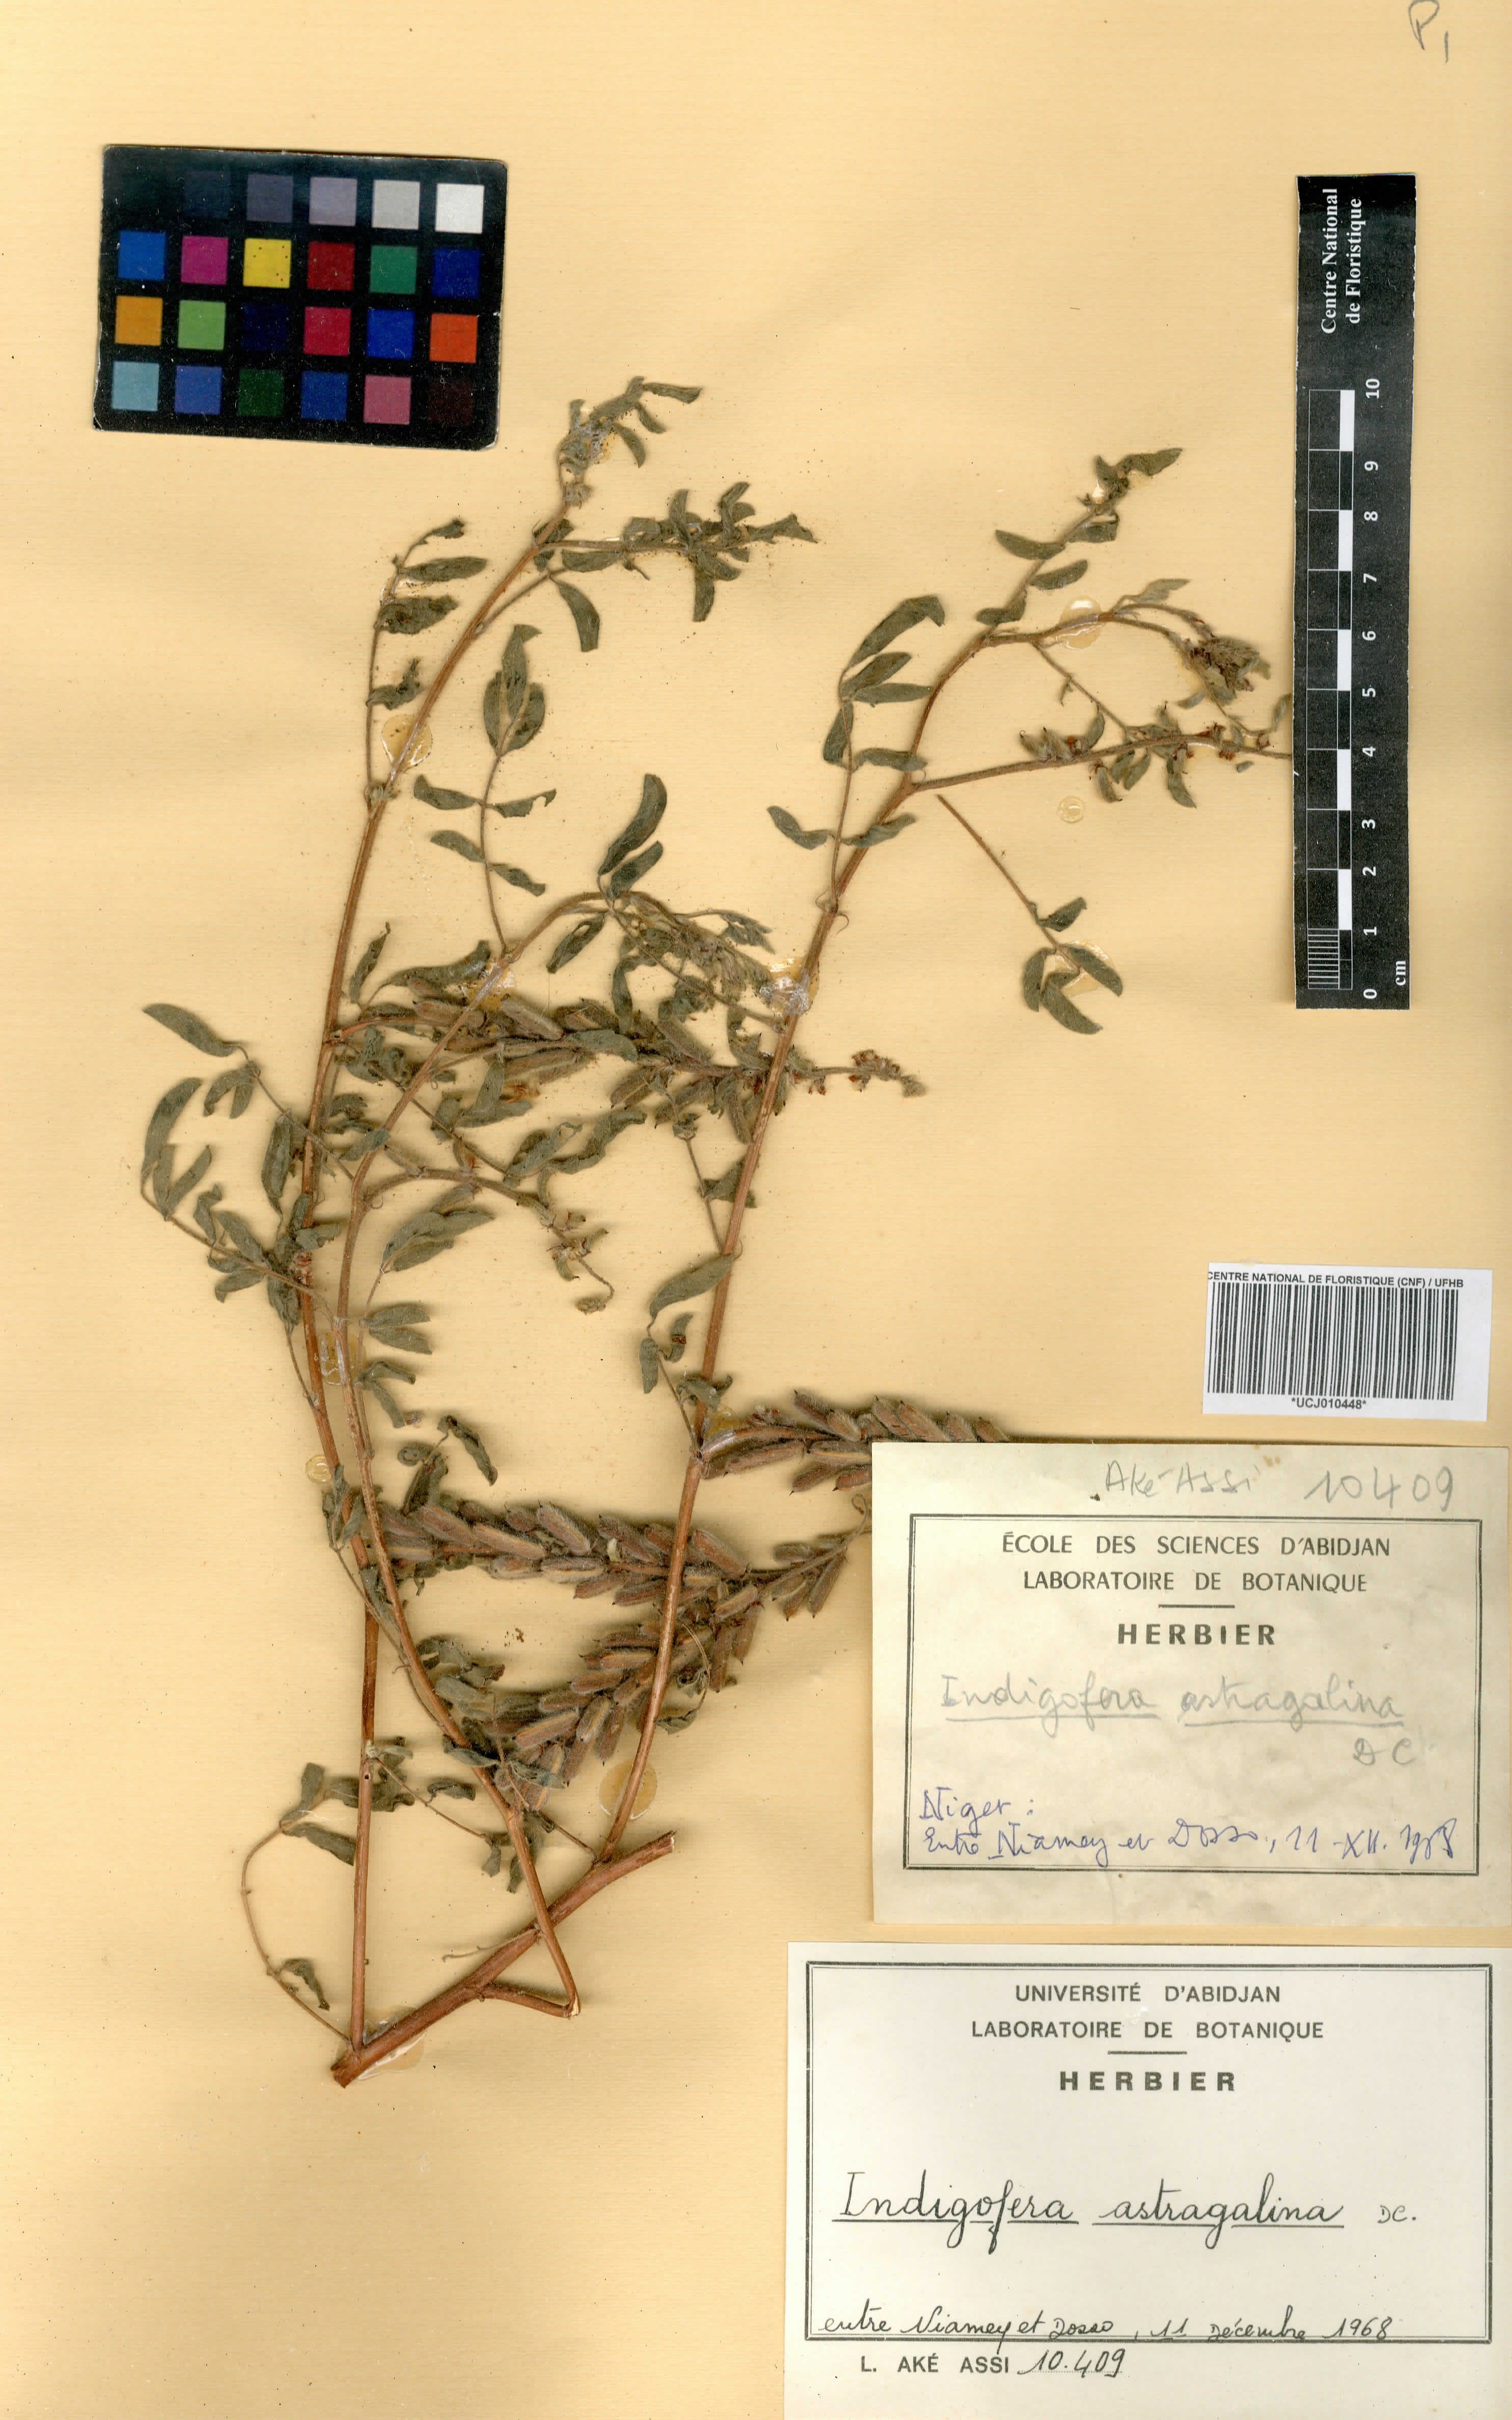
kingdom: Plantae
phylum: Tracheophyta
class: Magnoliopsida
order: Fabales
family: Fabaceae
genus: Indigofera
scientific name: Indigofera astragalina
